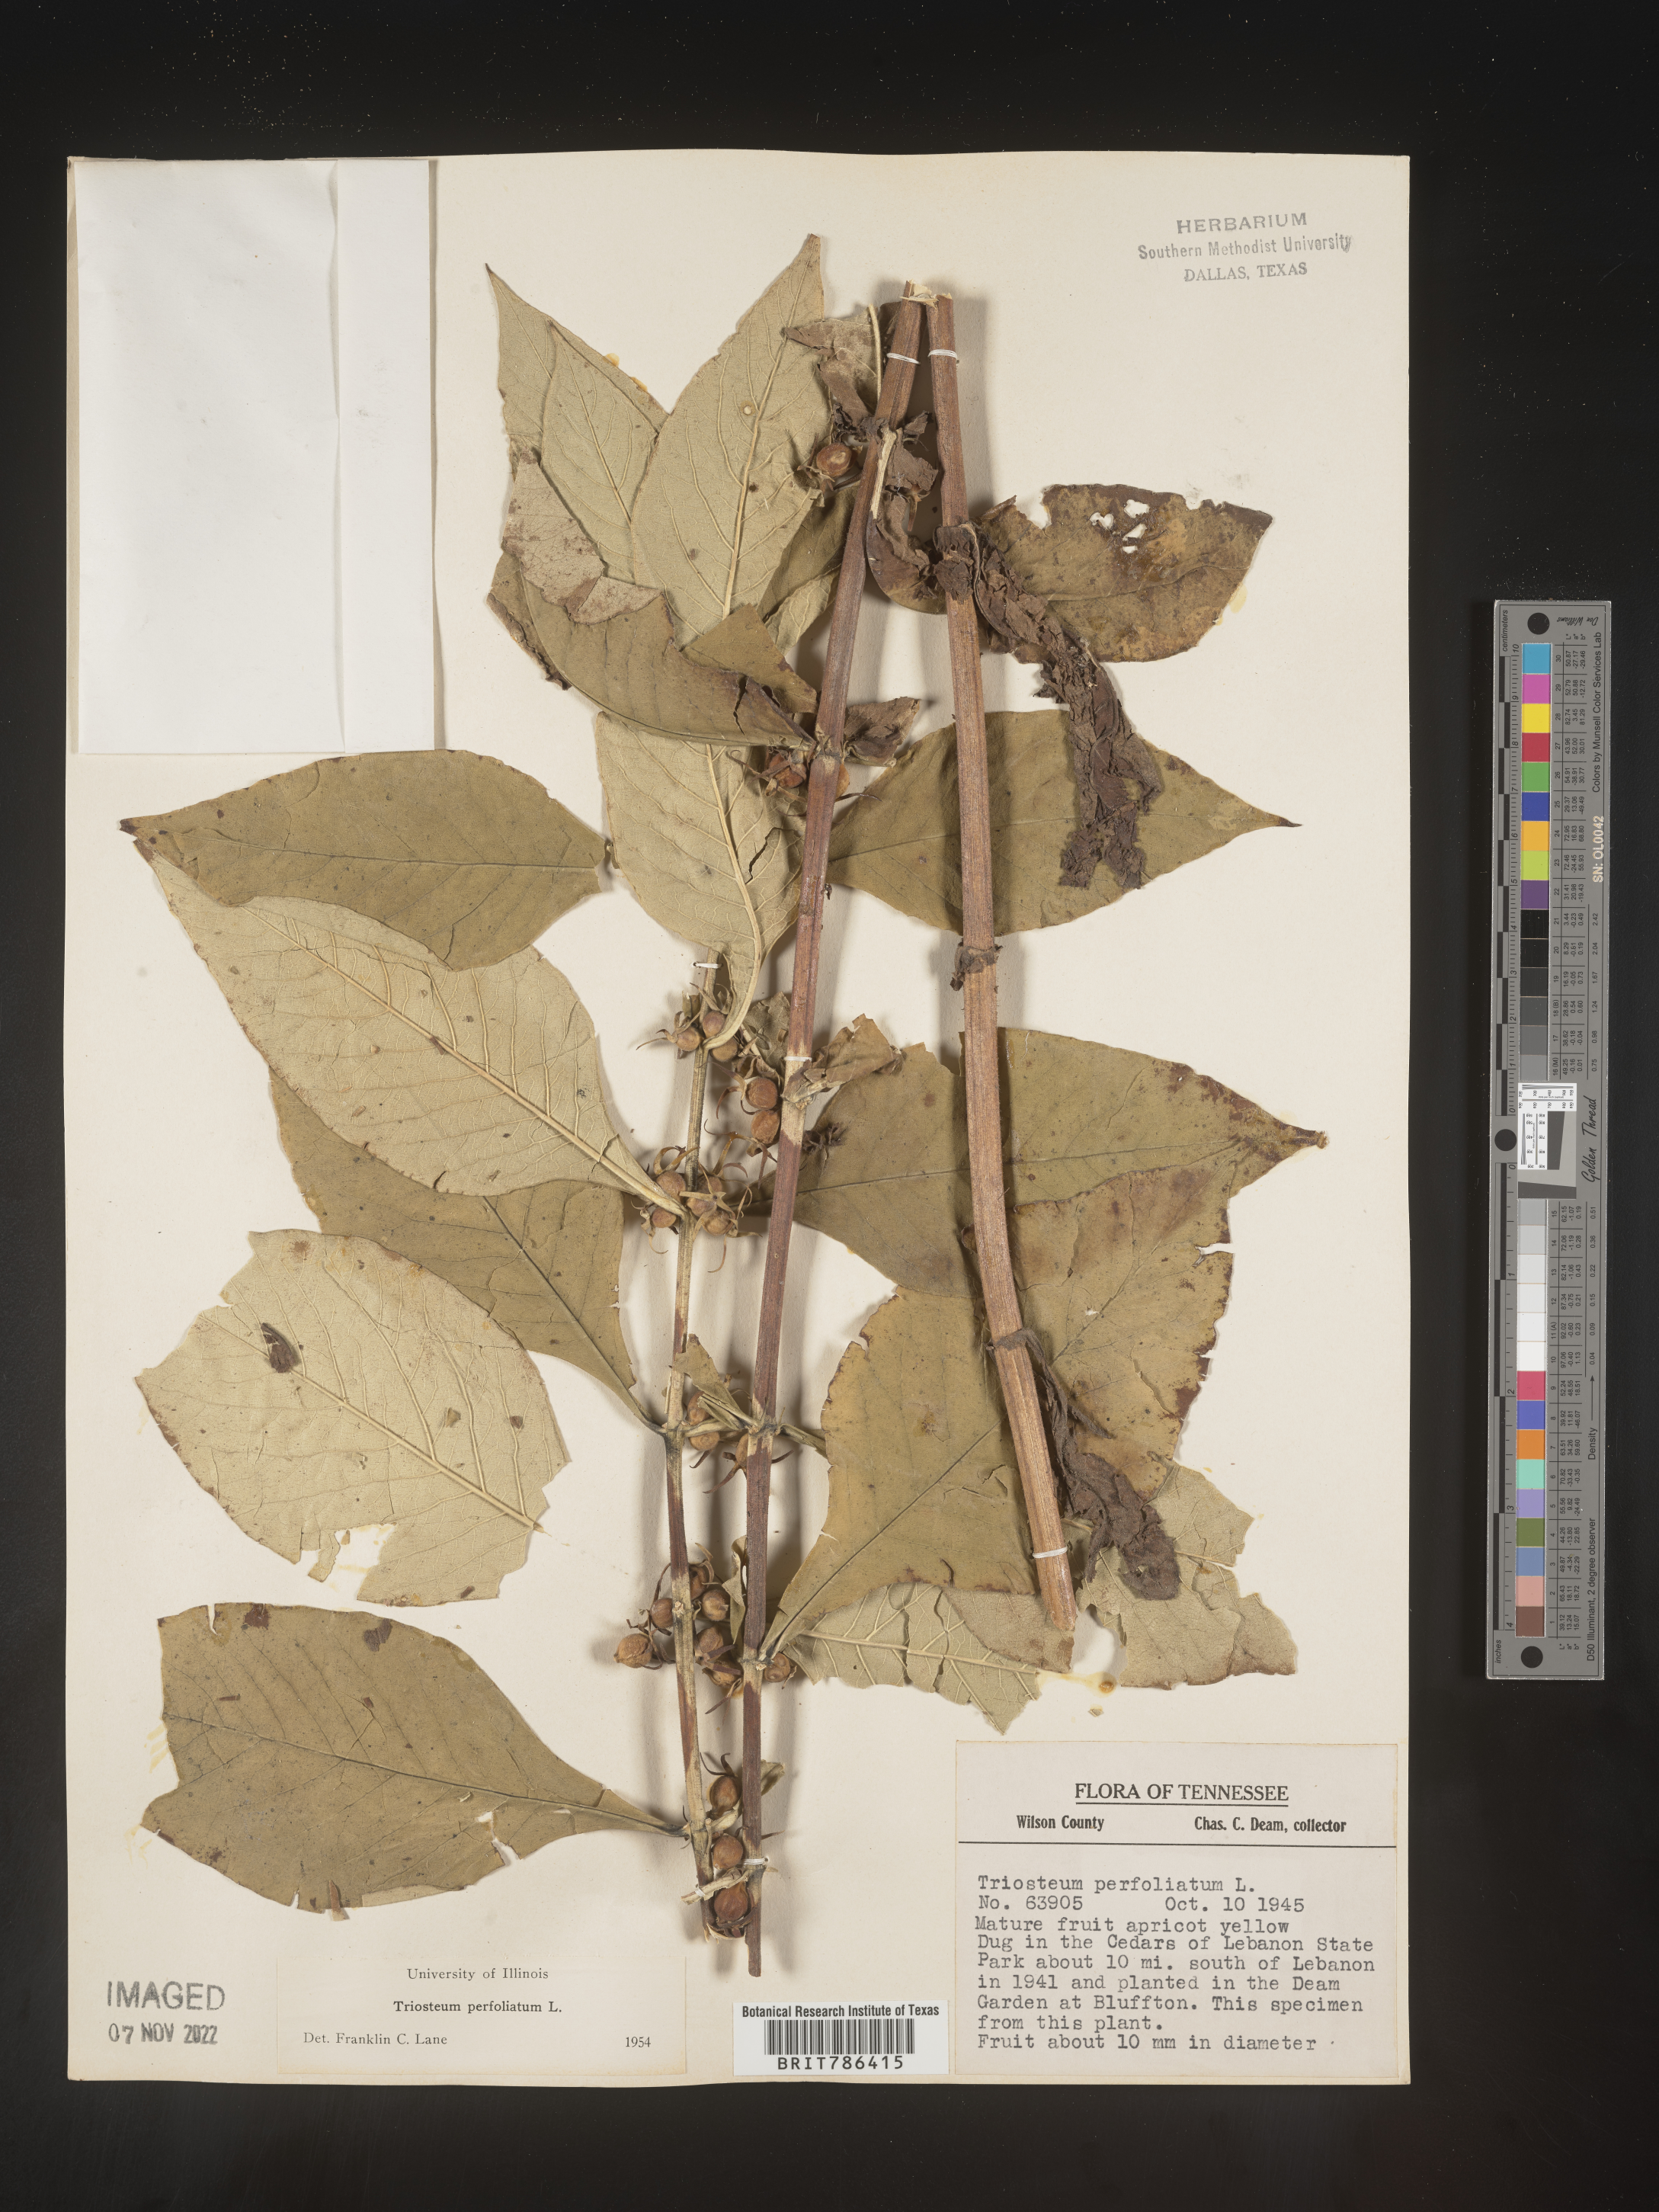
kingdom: Plantae
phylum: Tracheophyta
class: Magnoliopsida
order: Dipsacales
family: Caprifoliaceae
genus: Triosteum
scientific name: Triosteum perfoliatum
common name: Common horse-gentian
